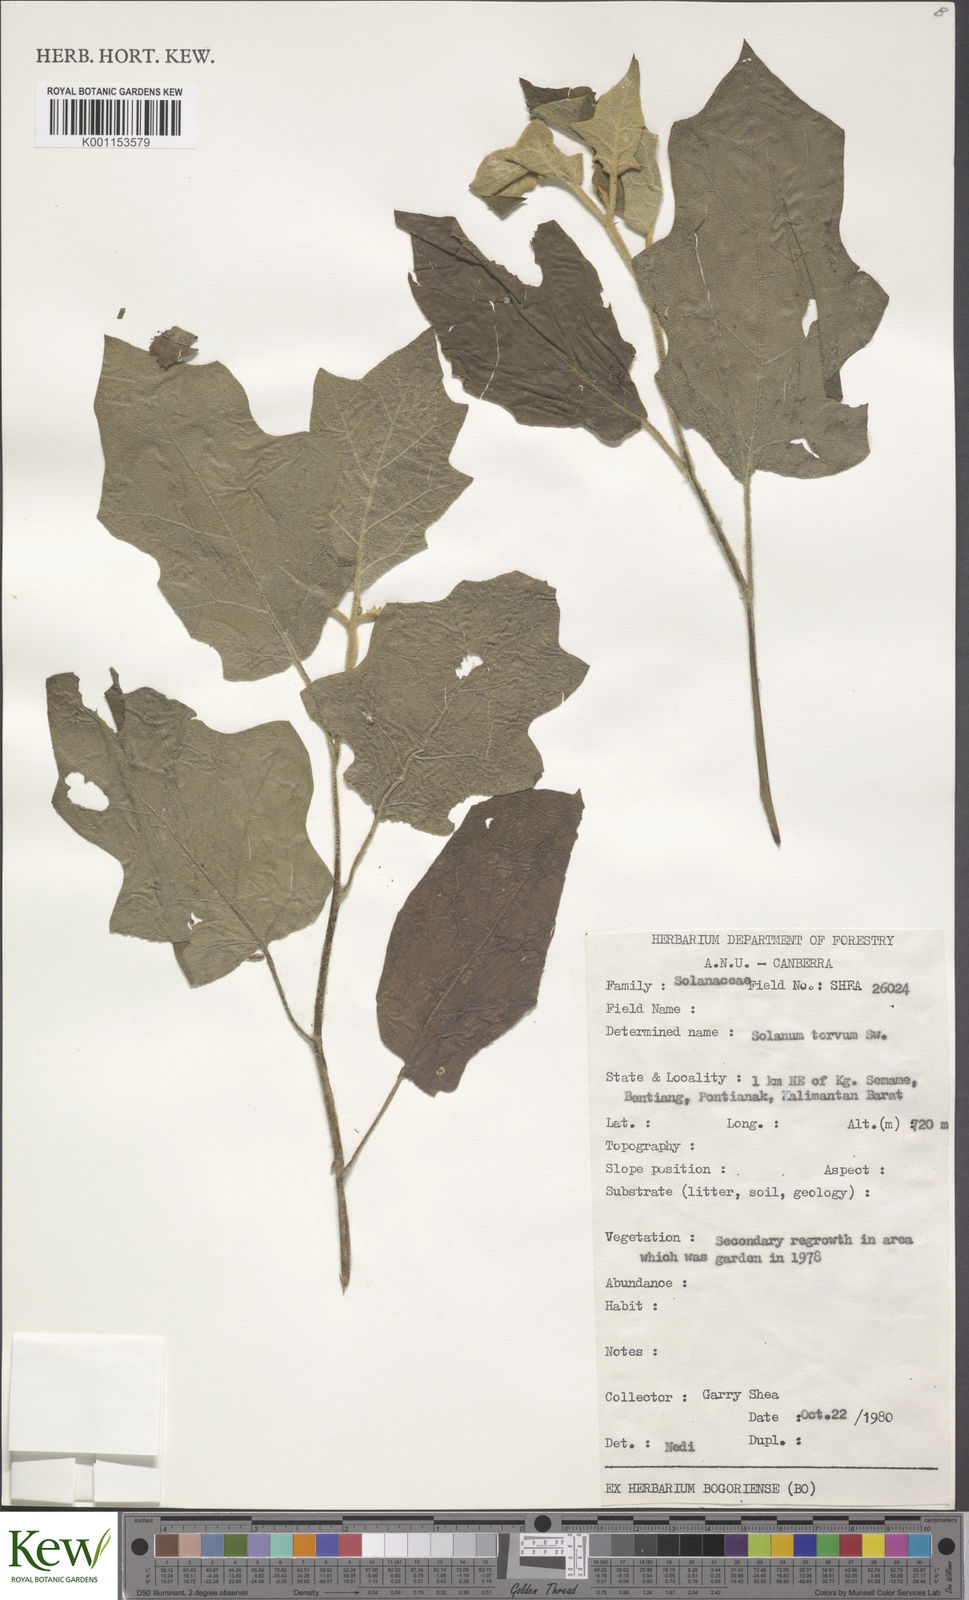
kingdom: Plantae
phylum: Tracheophyta
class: Magnoliopsida
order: Solanales
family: Solanaceae
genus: Solanum
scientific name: Solanum torvum
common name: Turkey berry
